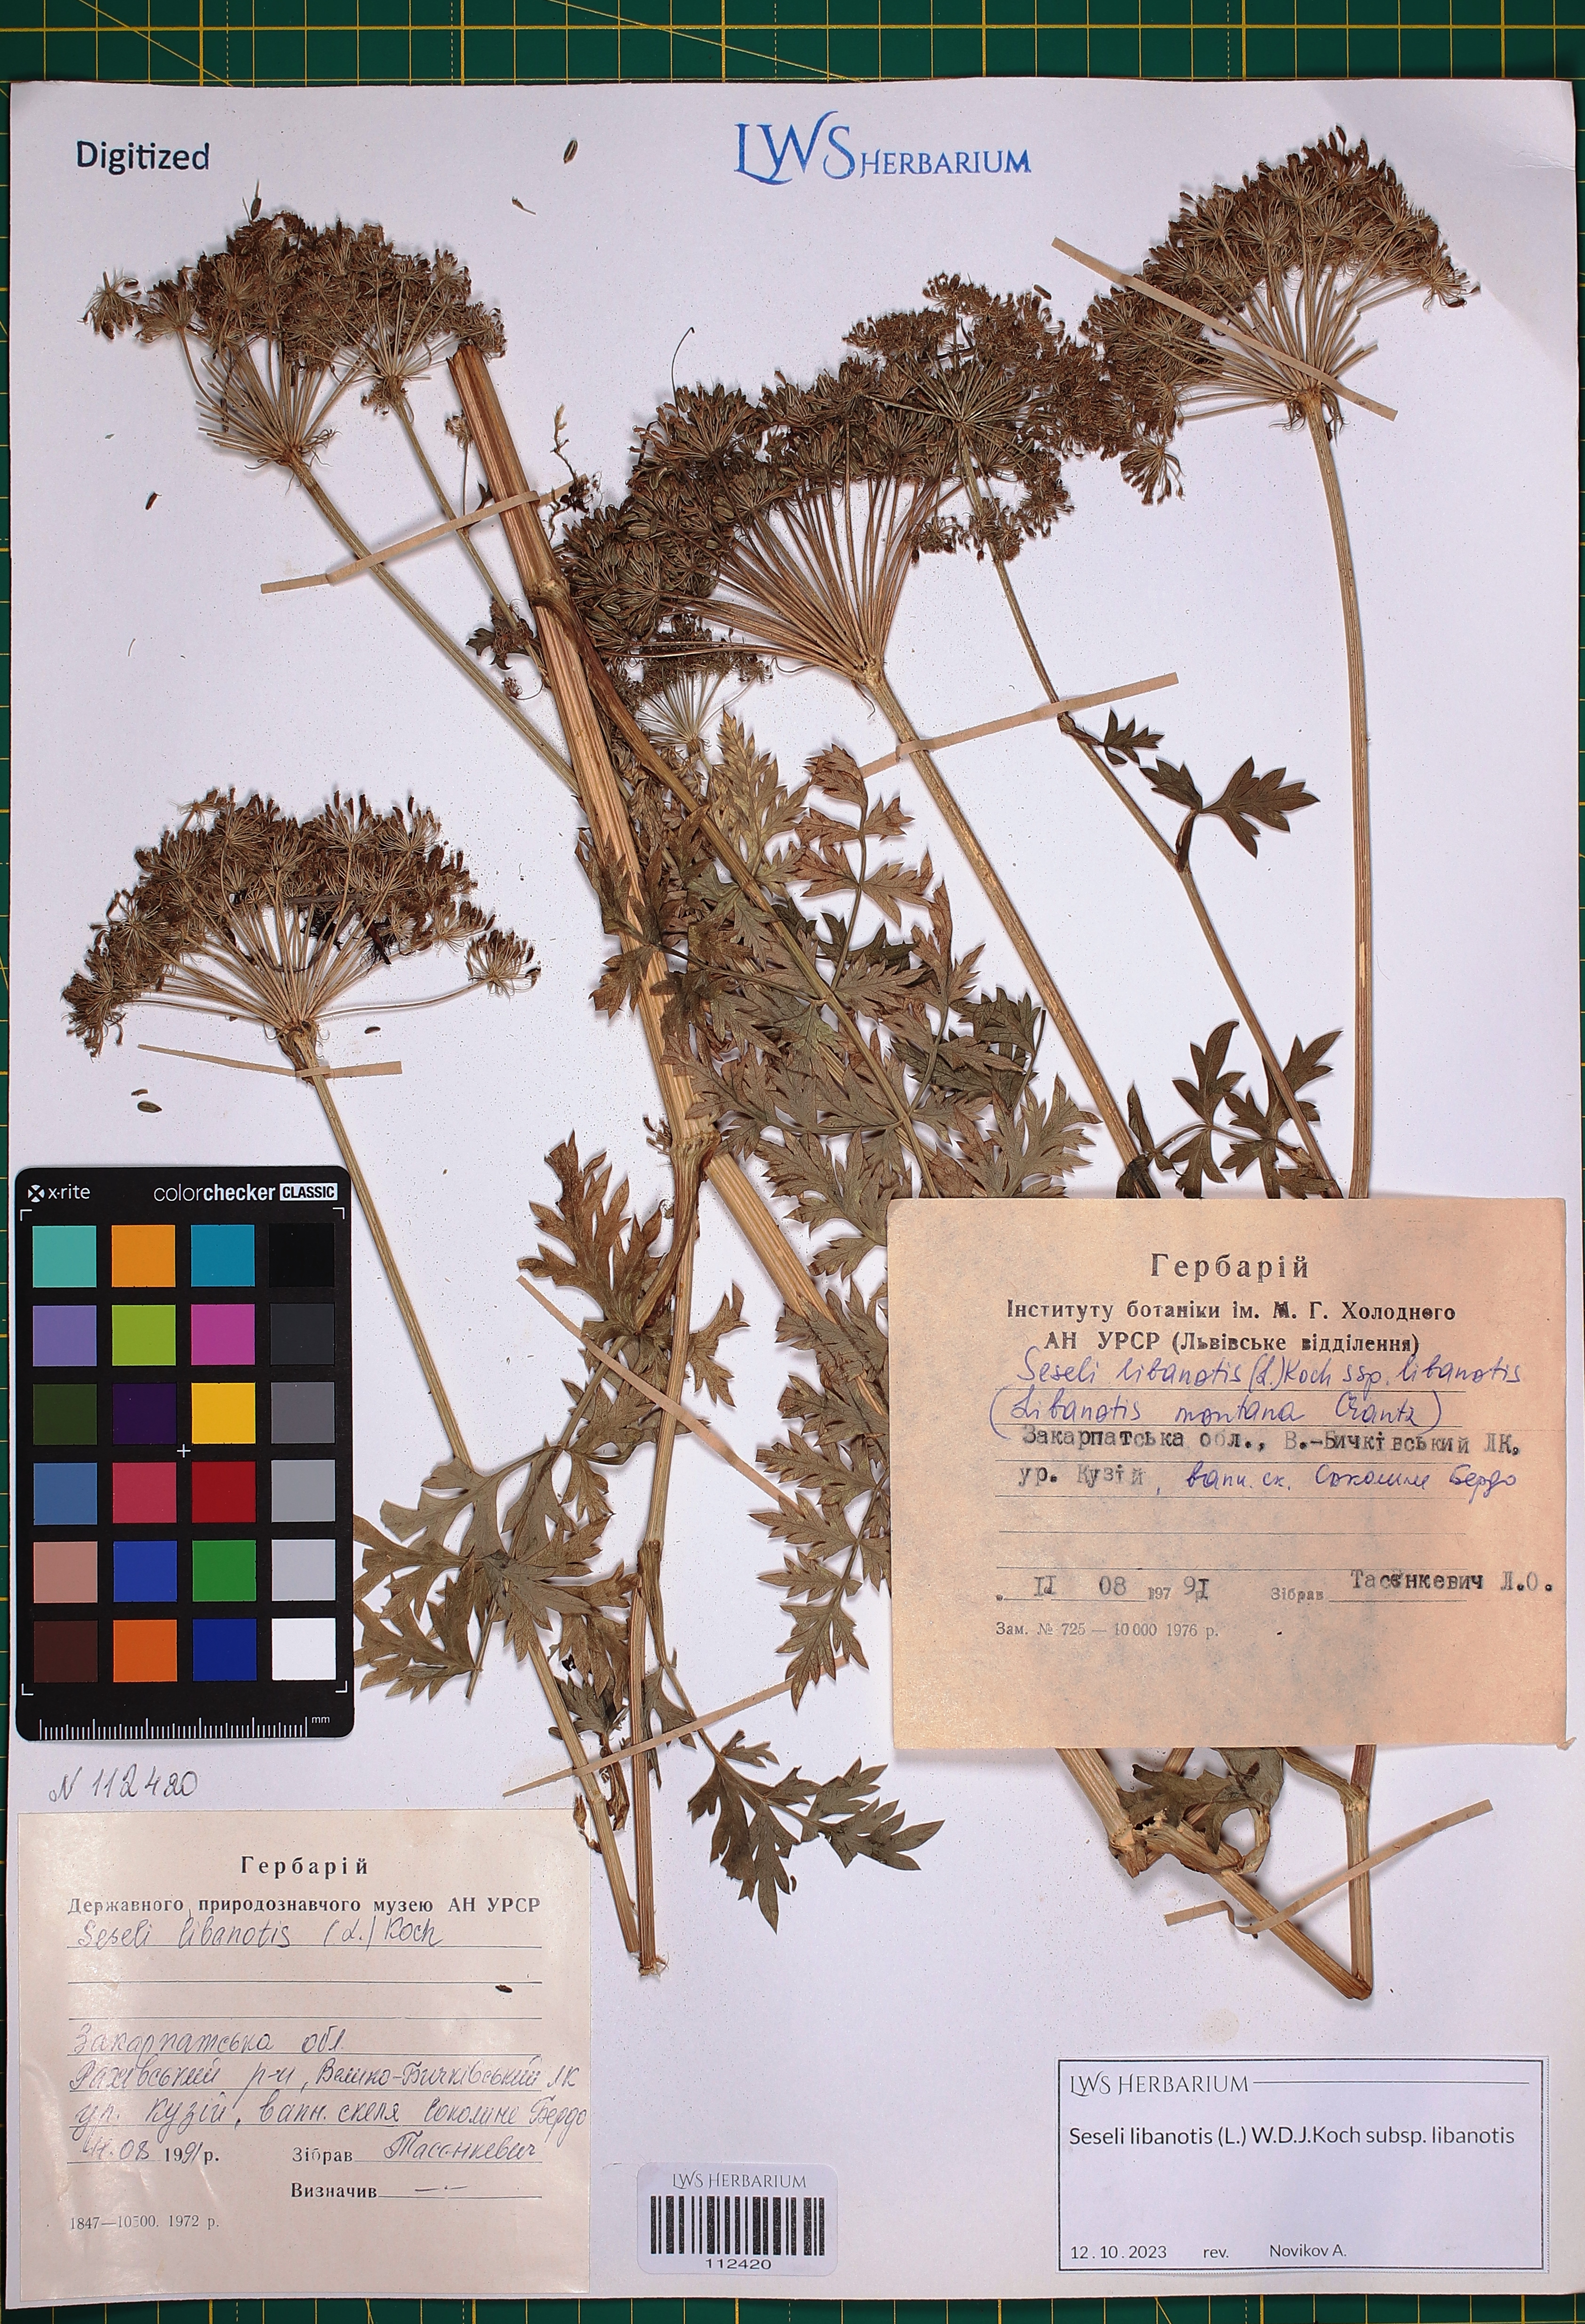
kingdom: Plantae
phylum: Tracheophyta
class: Magnoliopsida
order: Apiales
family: Apiaceae
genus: Seseli
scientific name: Seseli libanotis
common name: Mooncarrot
